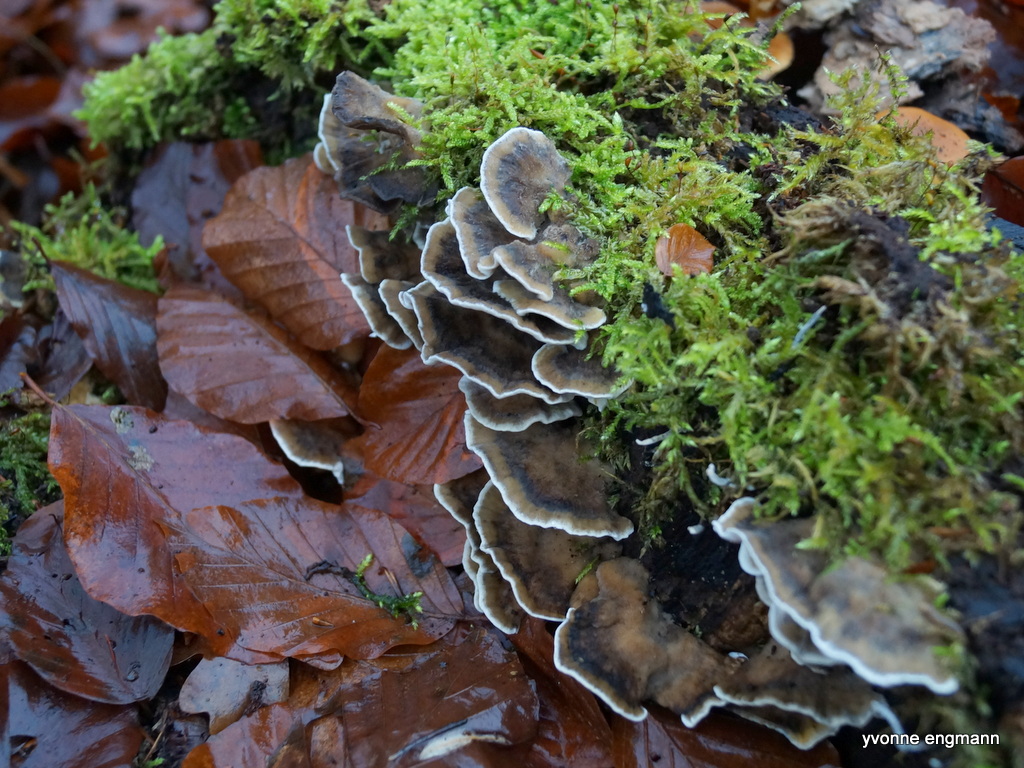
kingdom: Fungi
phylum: Basidiomycota
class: Agaricomycetes
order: Polyporales
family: Phanerochaetaceae
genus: Bjerkandera
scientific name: Bjerkandera adusta
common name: sveden sodporesvamp
